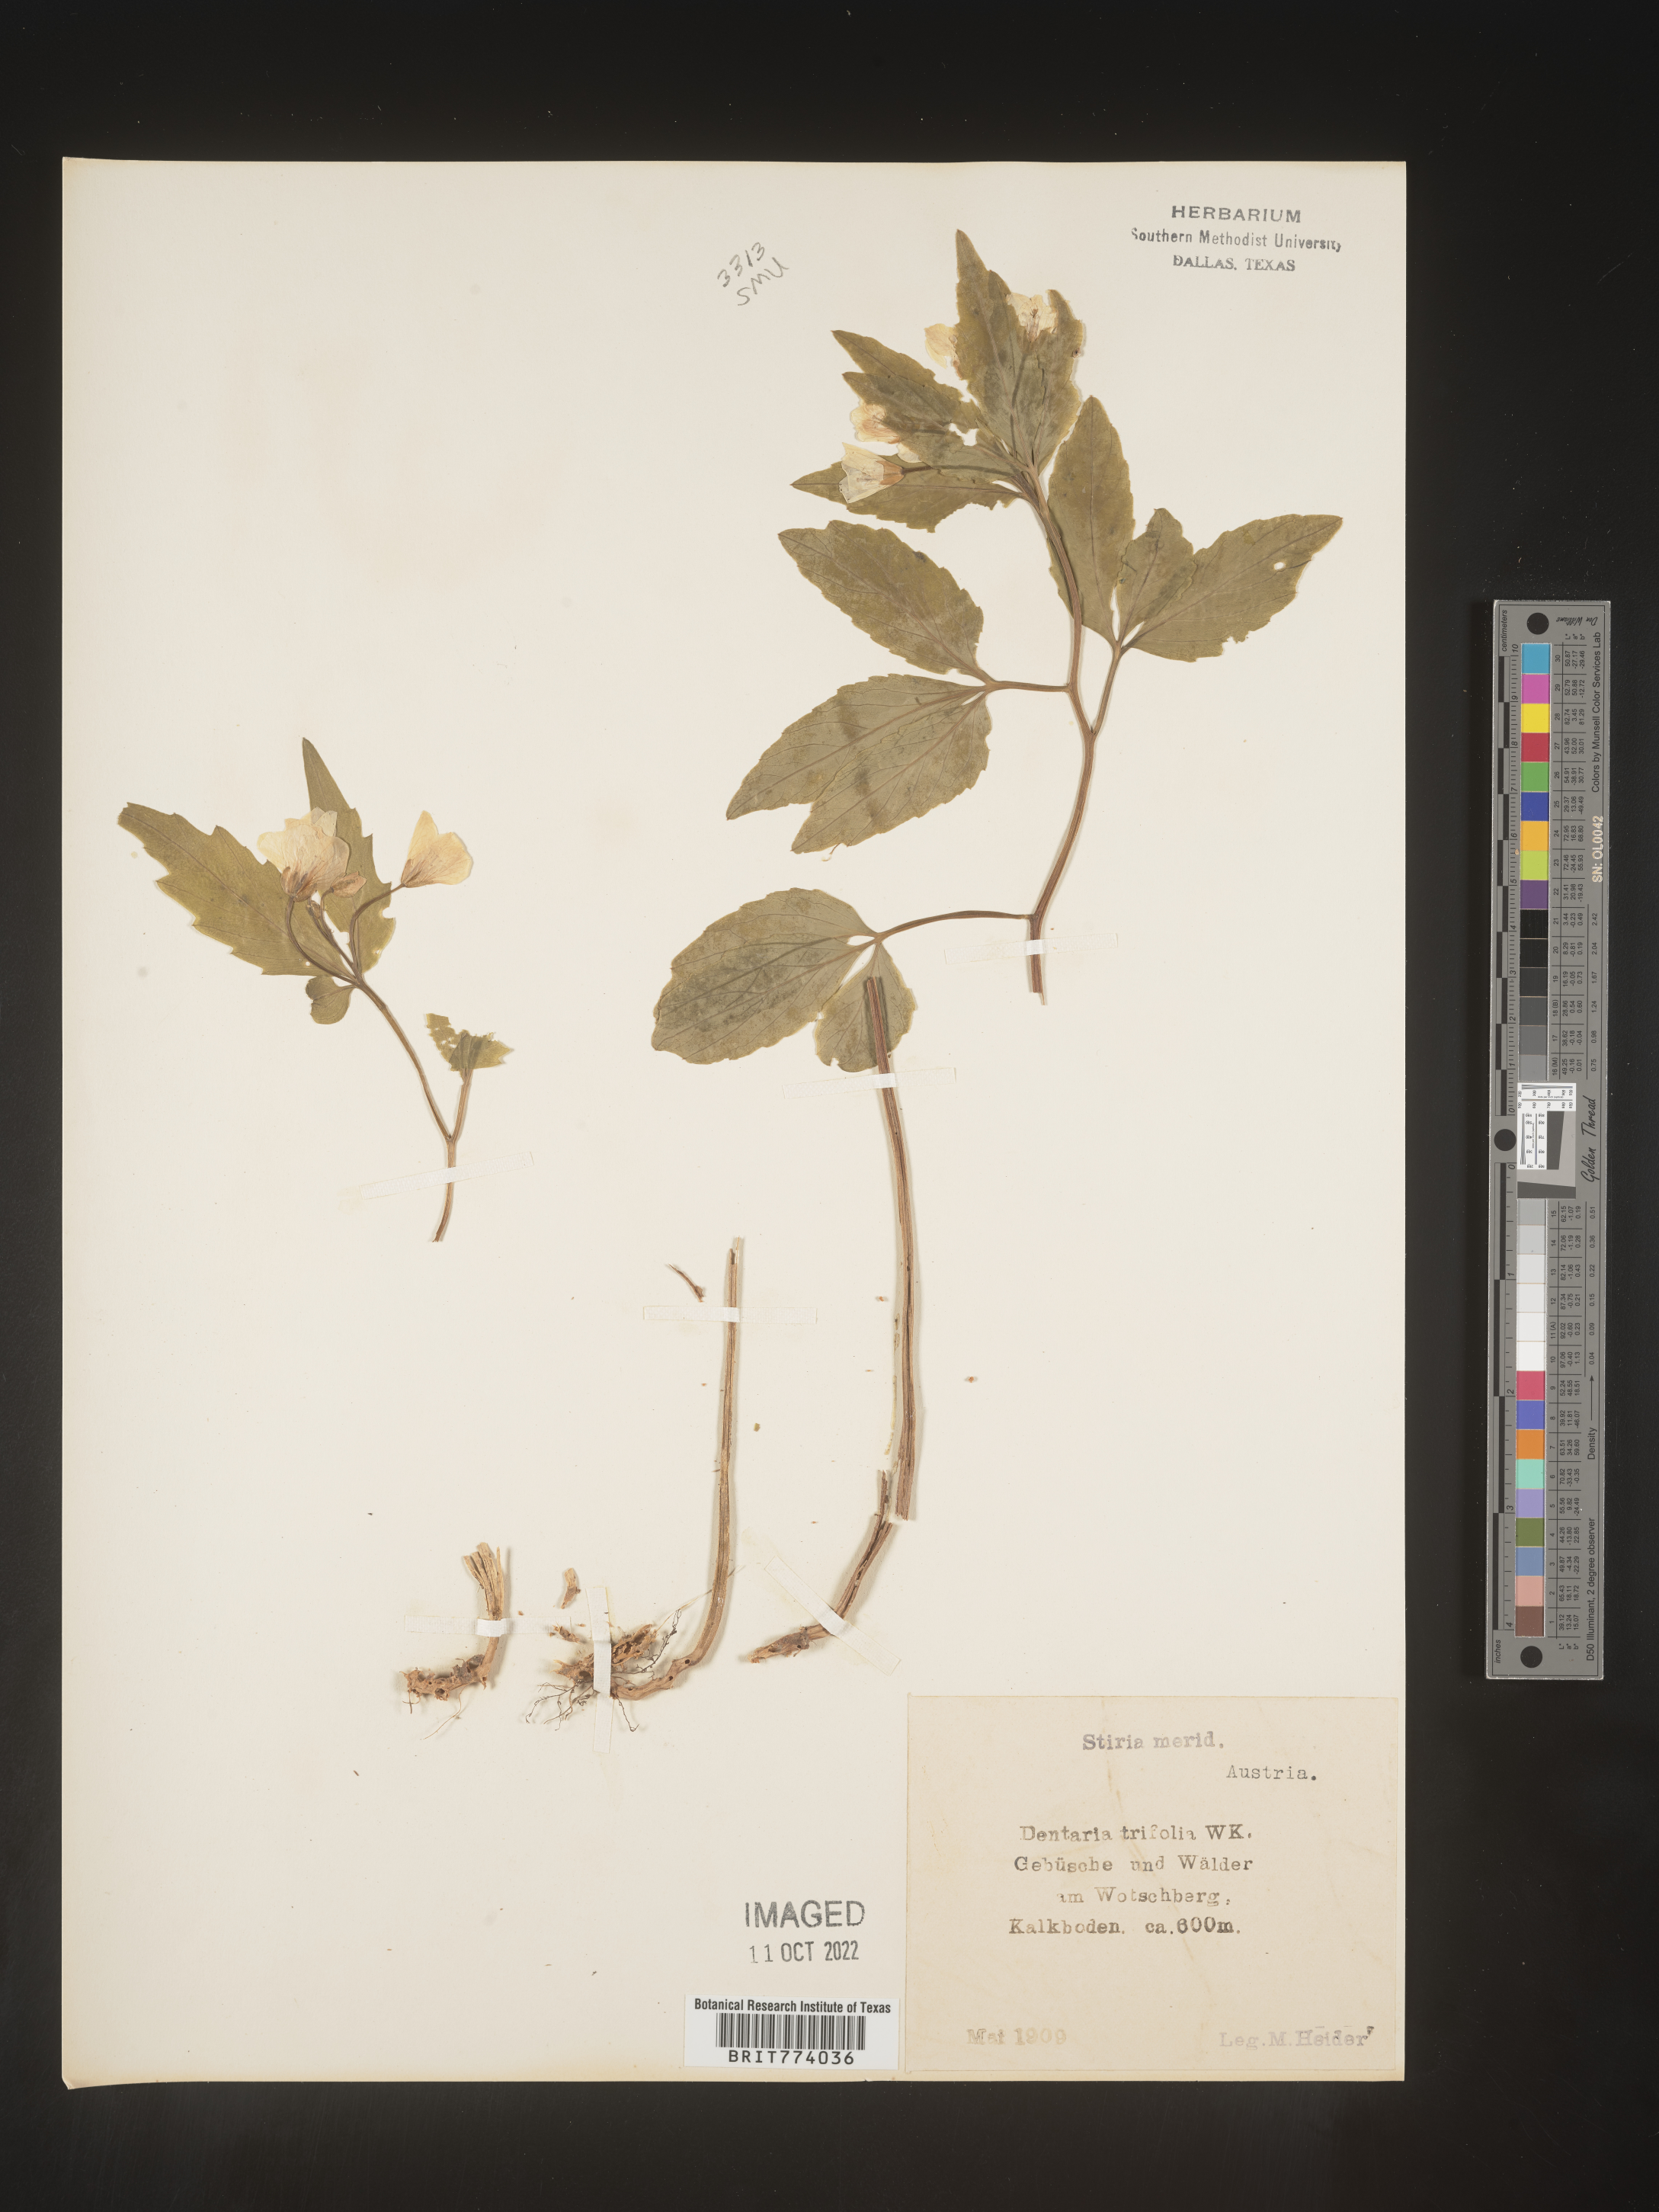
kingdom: Plantae
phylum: Tracheophyta
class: Magnoliopsida
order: Brassicales
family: Brassicaceae
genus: Cardamine
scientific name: Cardamine
